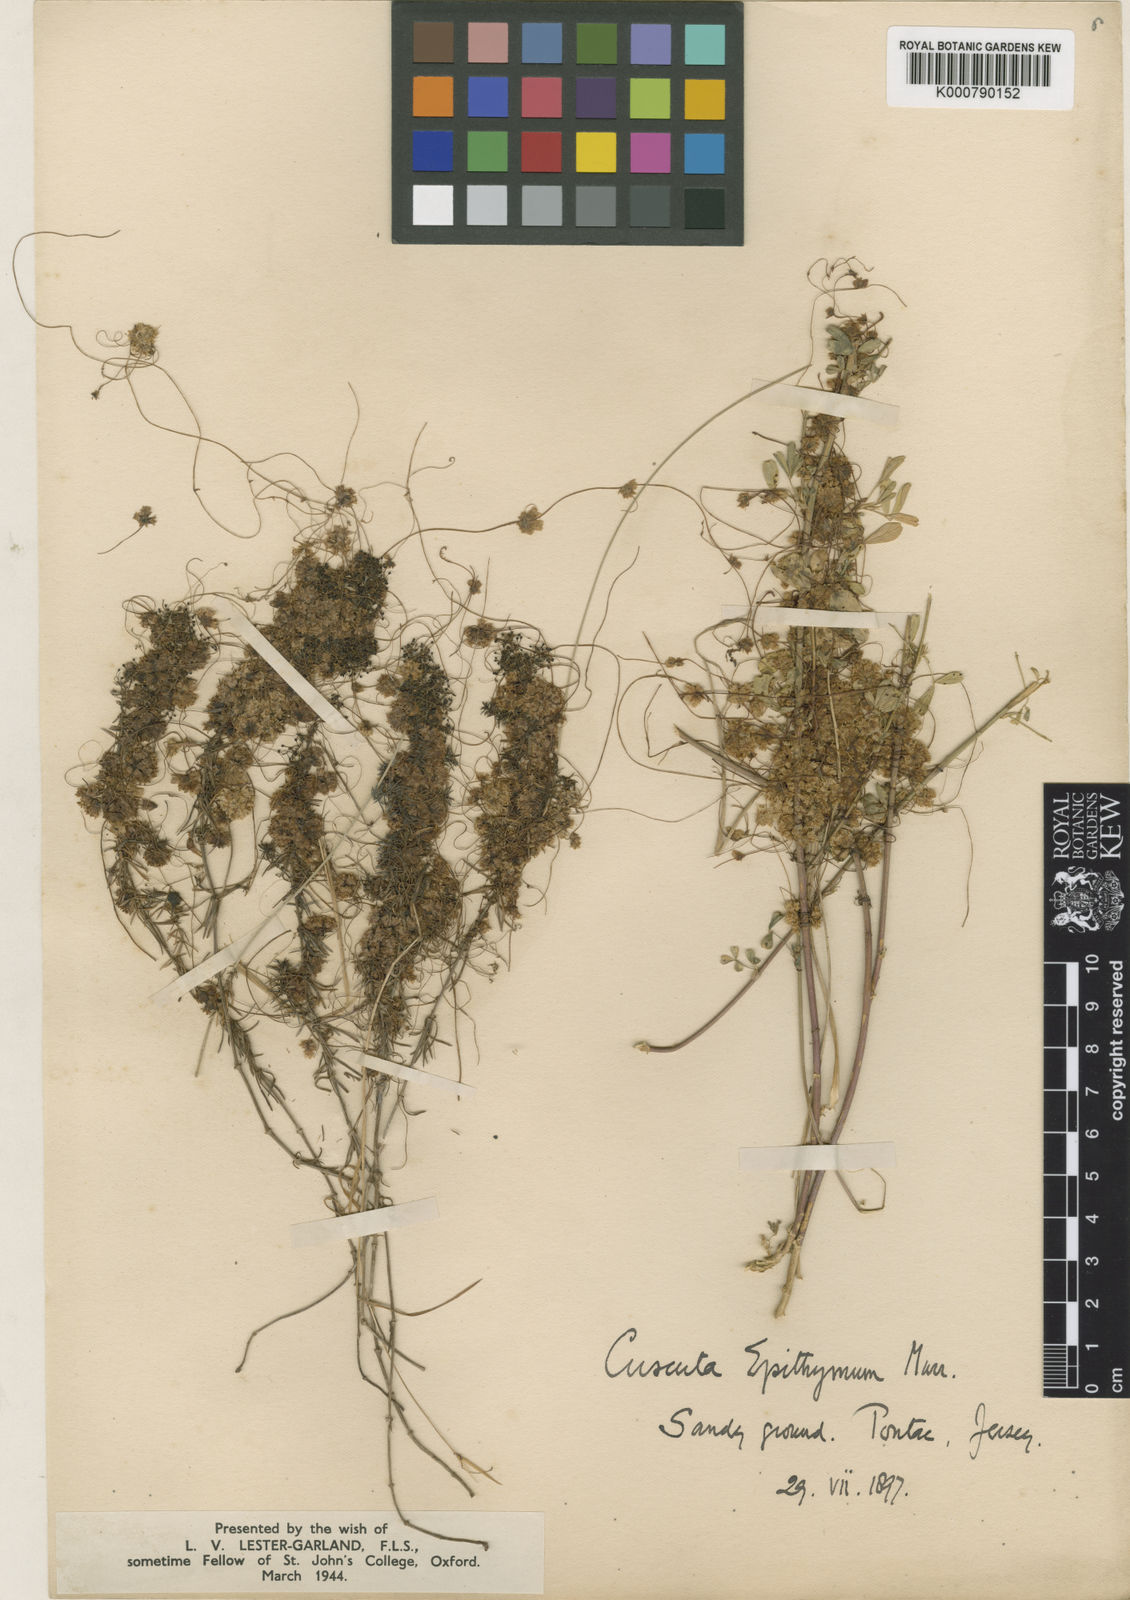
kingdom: Plantae
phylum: Tracheophyta
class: Magnoliopsida
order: Solanales
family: Convolvulaceae
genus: Cuscuta
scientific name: Cuscuta epithymum
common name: Clover dodder
